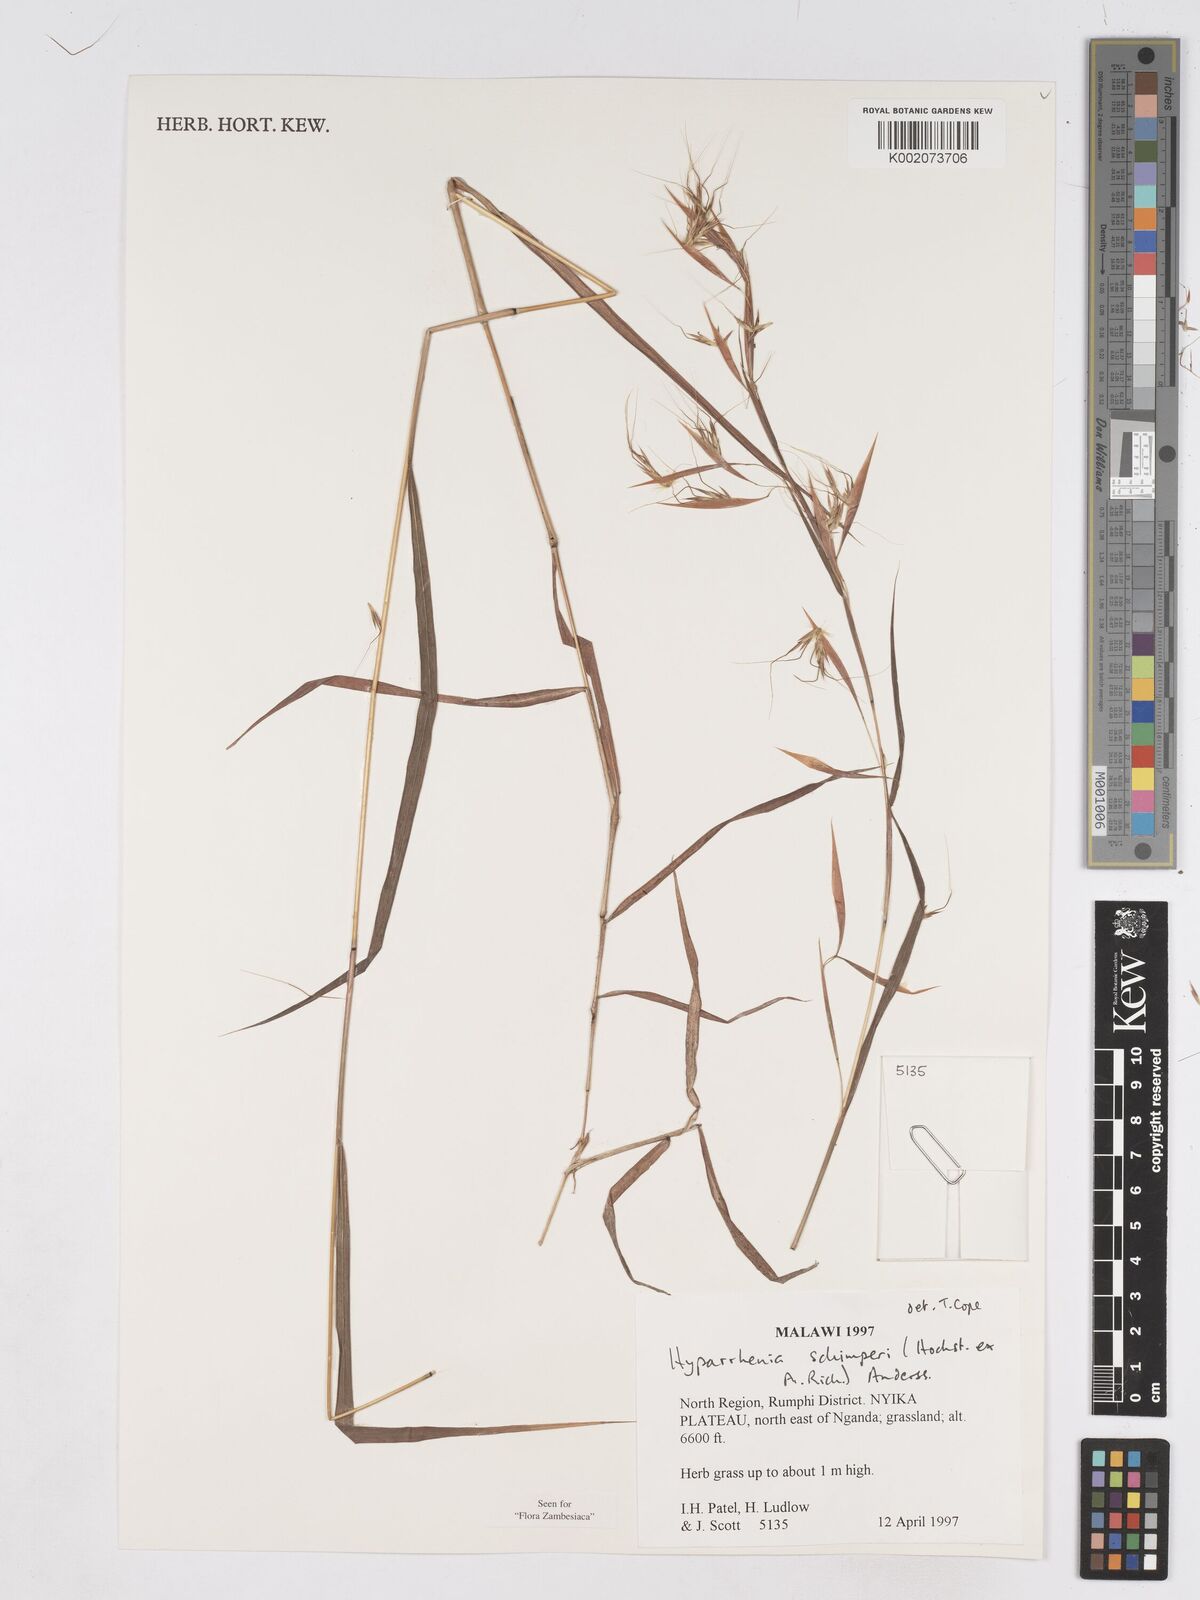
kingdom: Plantae
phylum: Tracheophyta
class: Liliopsida
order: Poales
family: Poaceae
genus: Hyparrhenia
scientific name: Hyparrhenia schimperi
